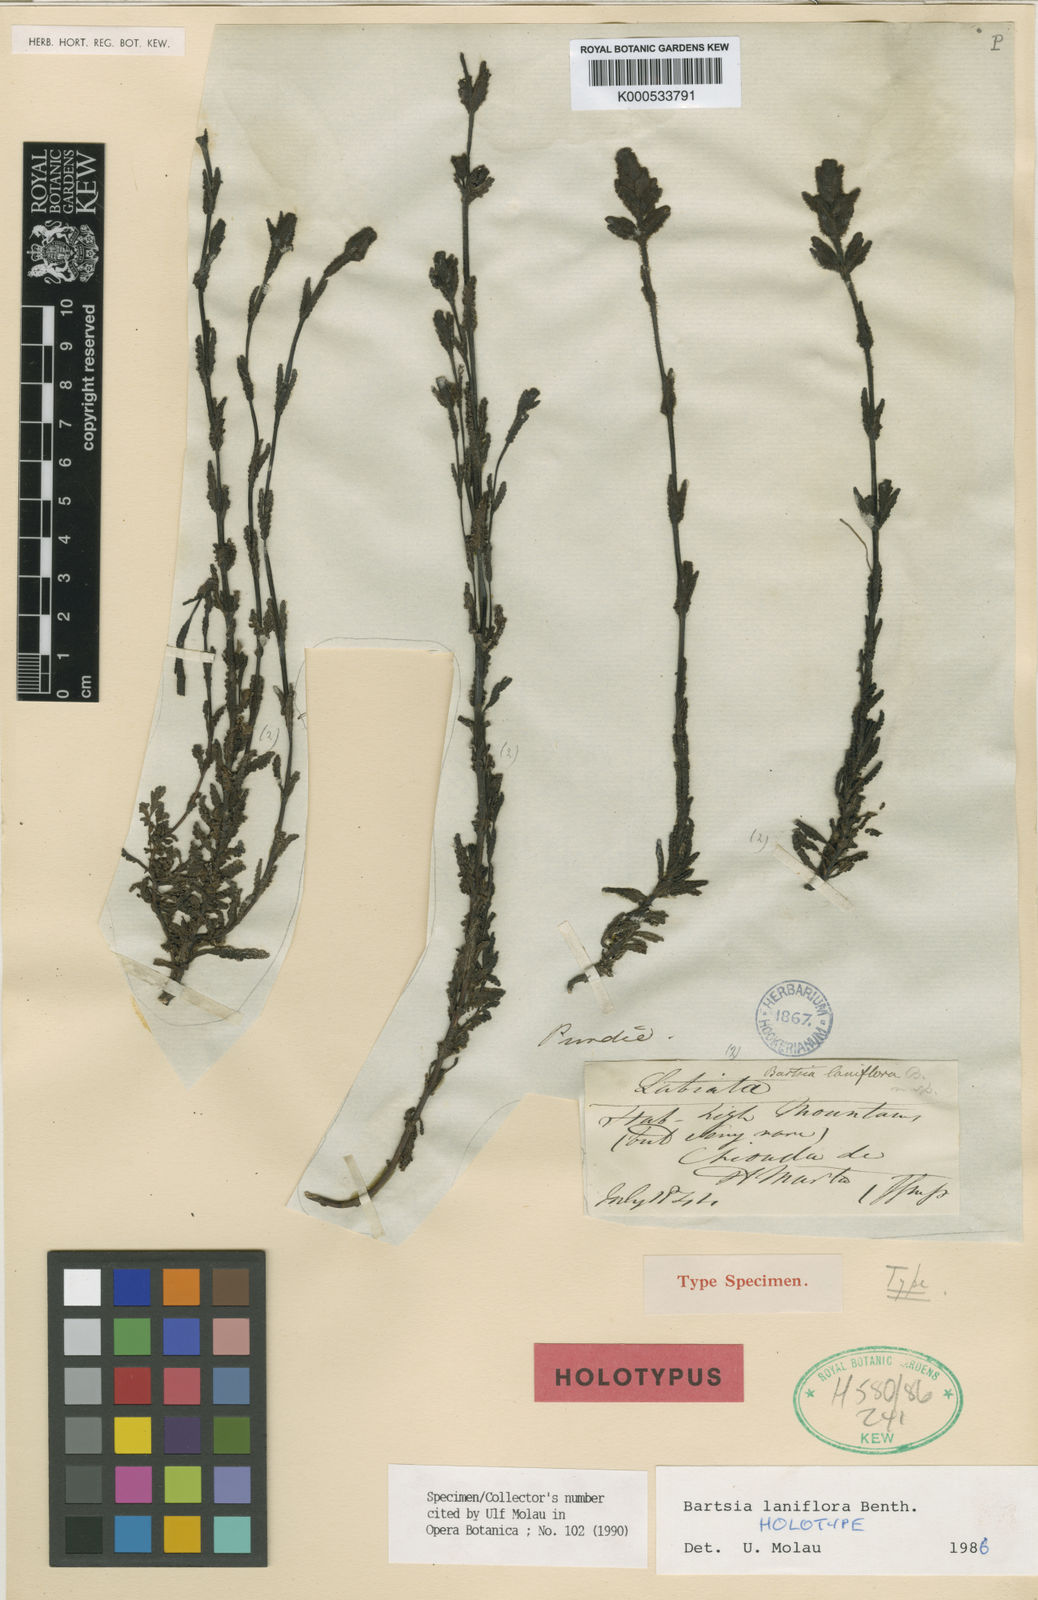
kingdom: Plantae
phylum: Tracheophyta
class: Magnoliopsida
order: Lamiales
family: Orobanchaceae
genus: Neobartsia
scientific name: Neobartsia laniflora
